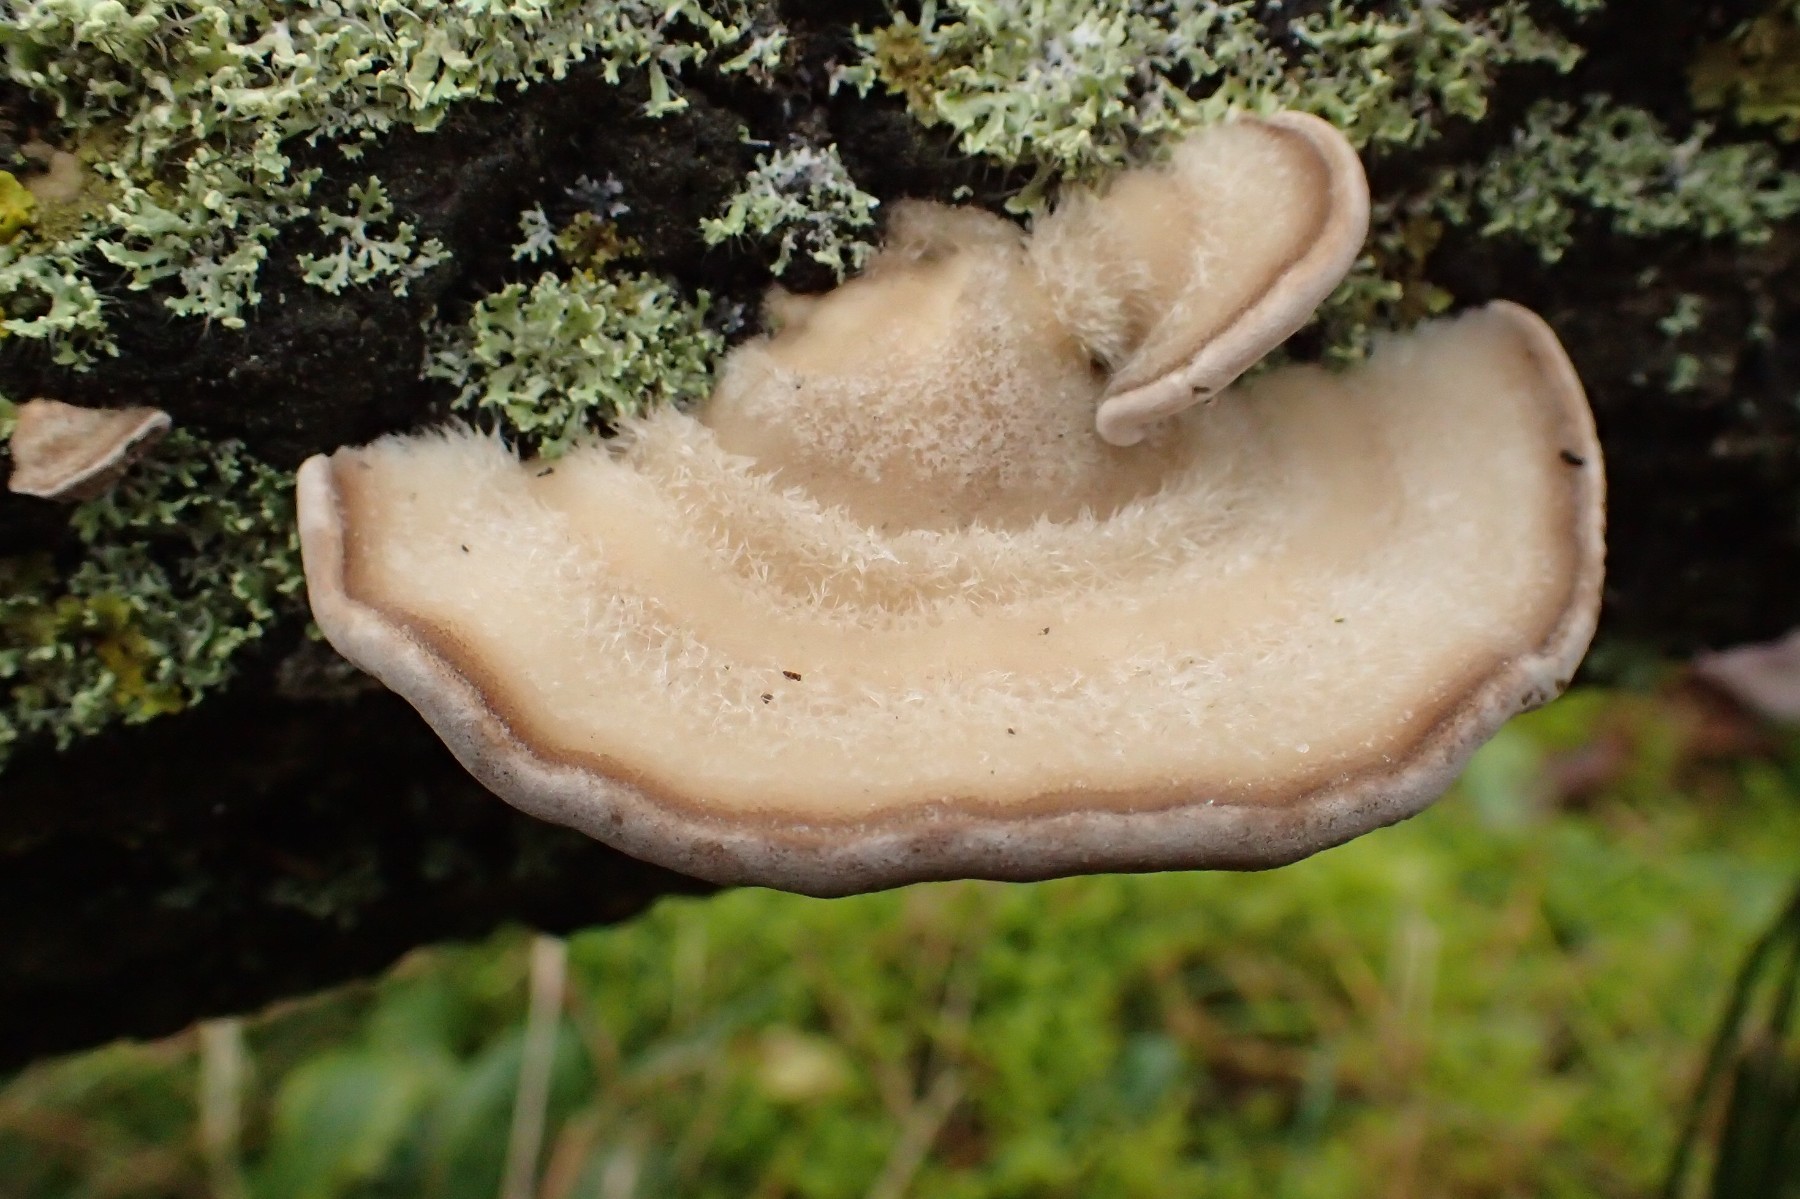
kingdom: Fungi
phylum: Basidiomycota
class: Agaricomycetes
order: Polyporales
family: Polyporaceae
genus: Trametes
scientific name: Trametes hirsuta
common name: håret læderporesvamp
